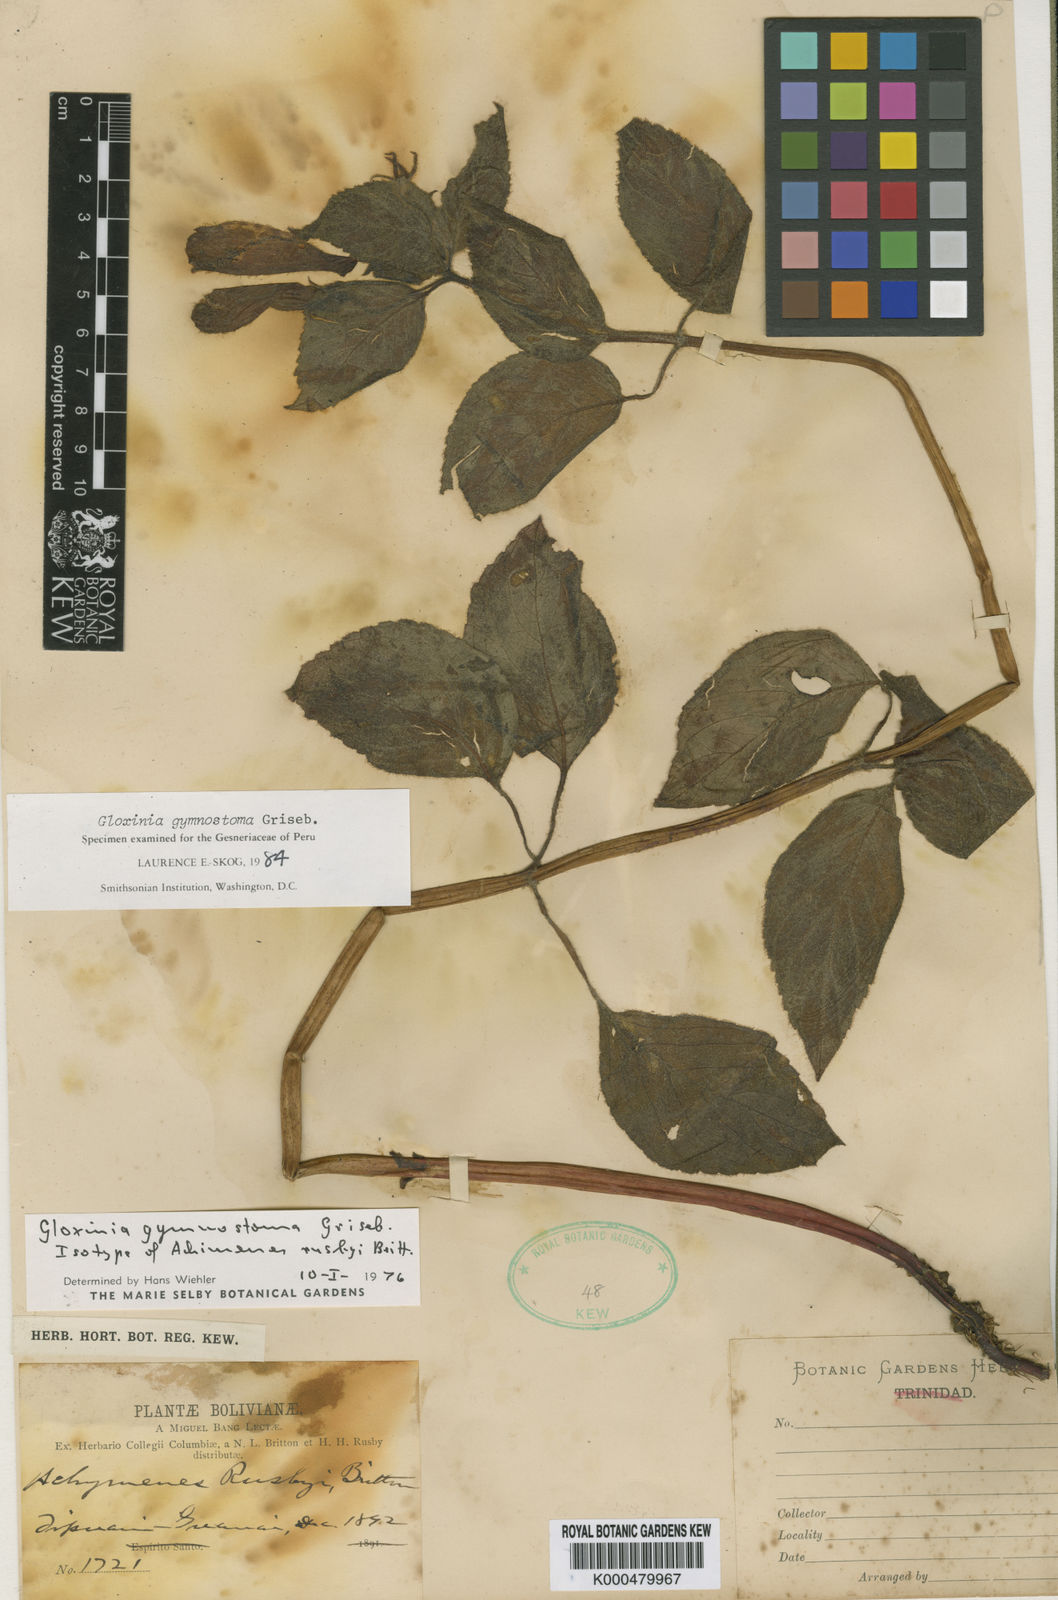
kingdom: Plantae
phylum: Tracheophyta
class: Magnoliopsida
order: Lamiales
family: Gesneriaceae
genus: Seemannia
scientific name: Seemannia gymnostoma
